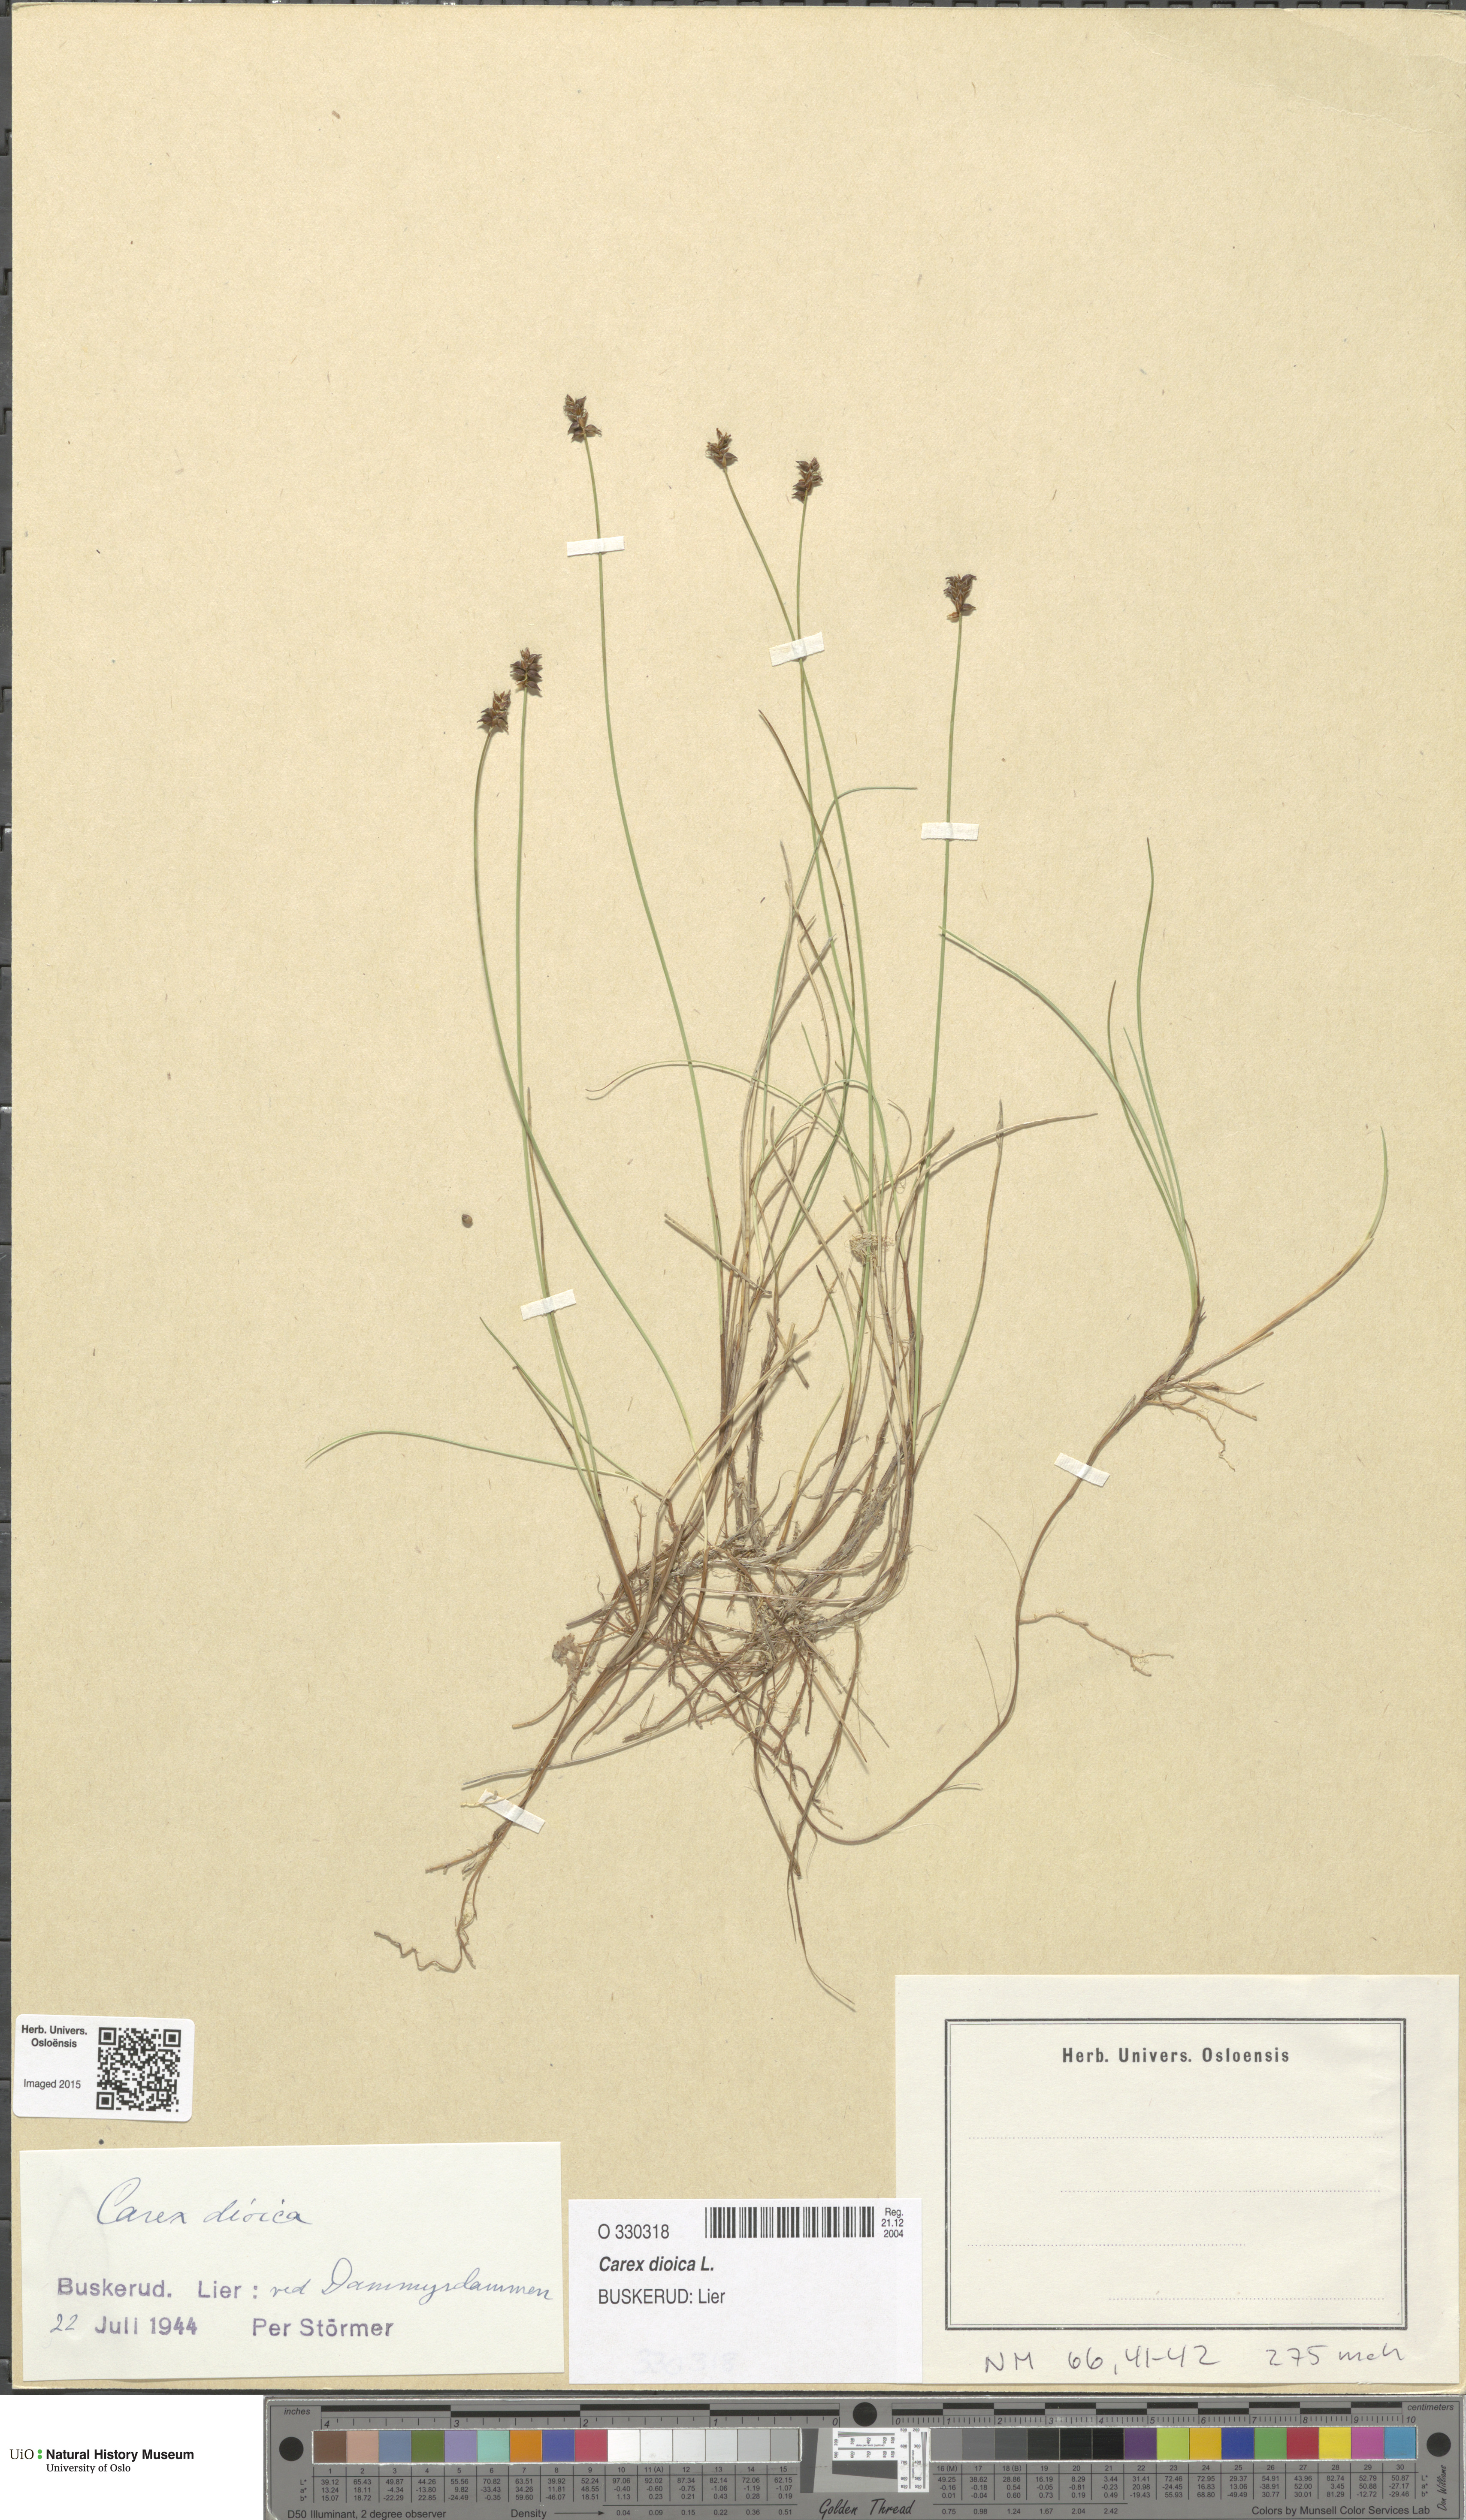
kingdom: Plantae
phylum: Tracheophyta
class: Liliopsida
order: Poales
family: Cyperaceae
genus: Carex
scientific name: Carex dioica
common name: Dioecious sedge
